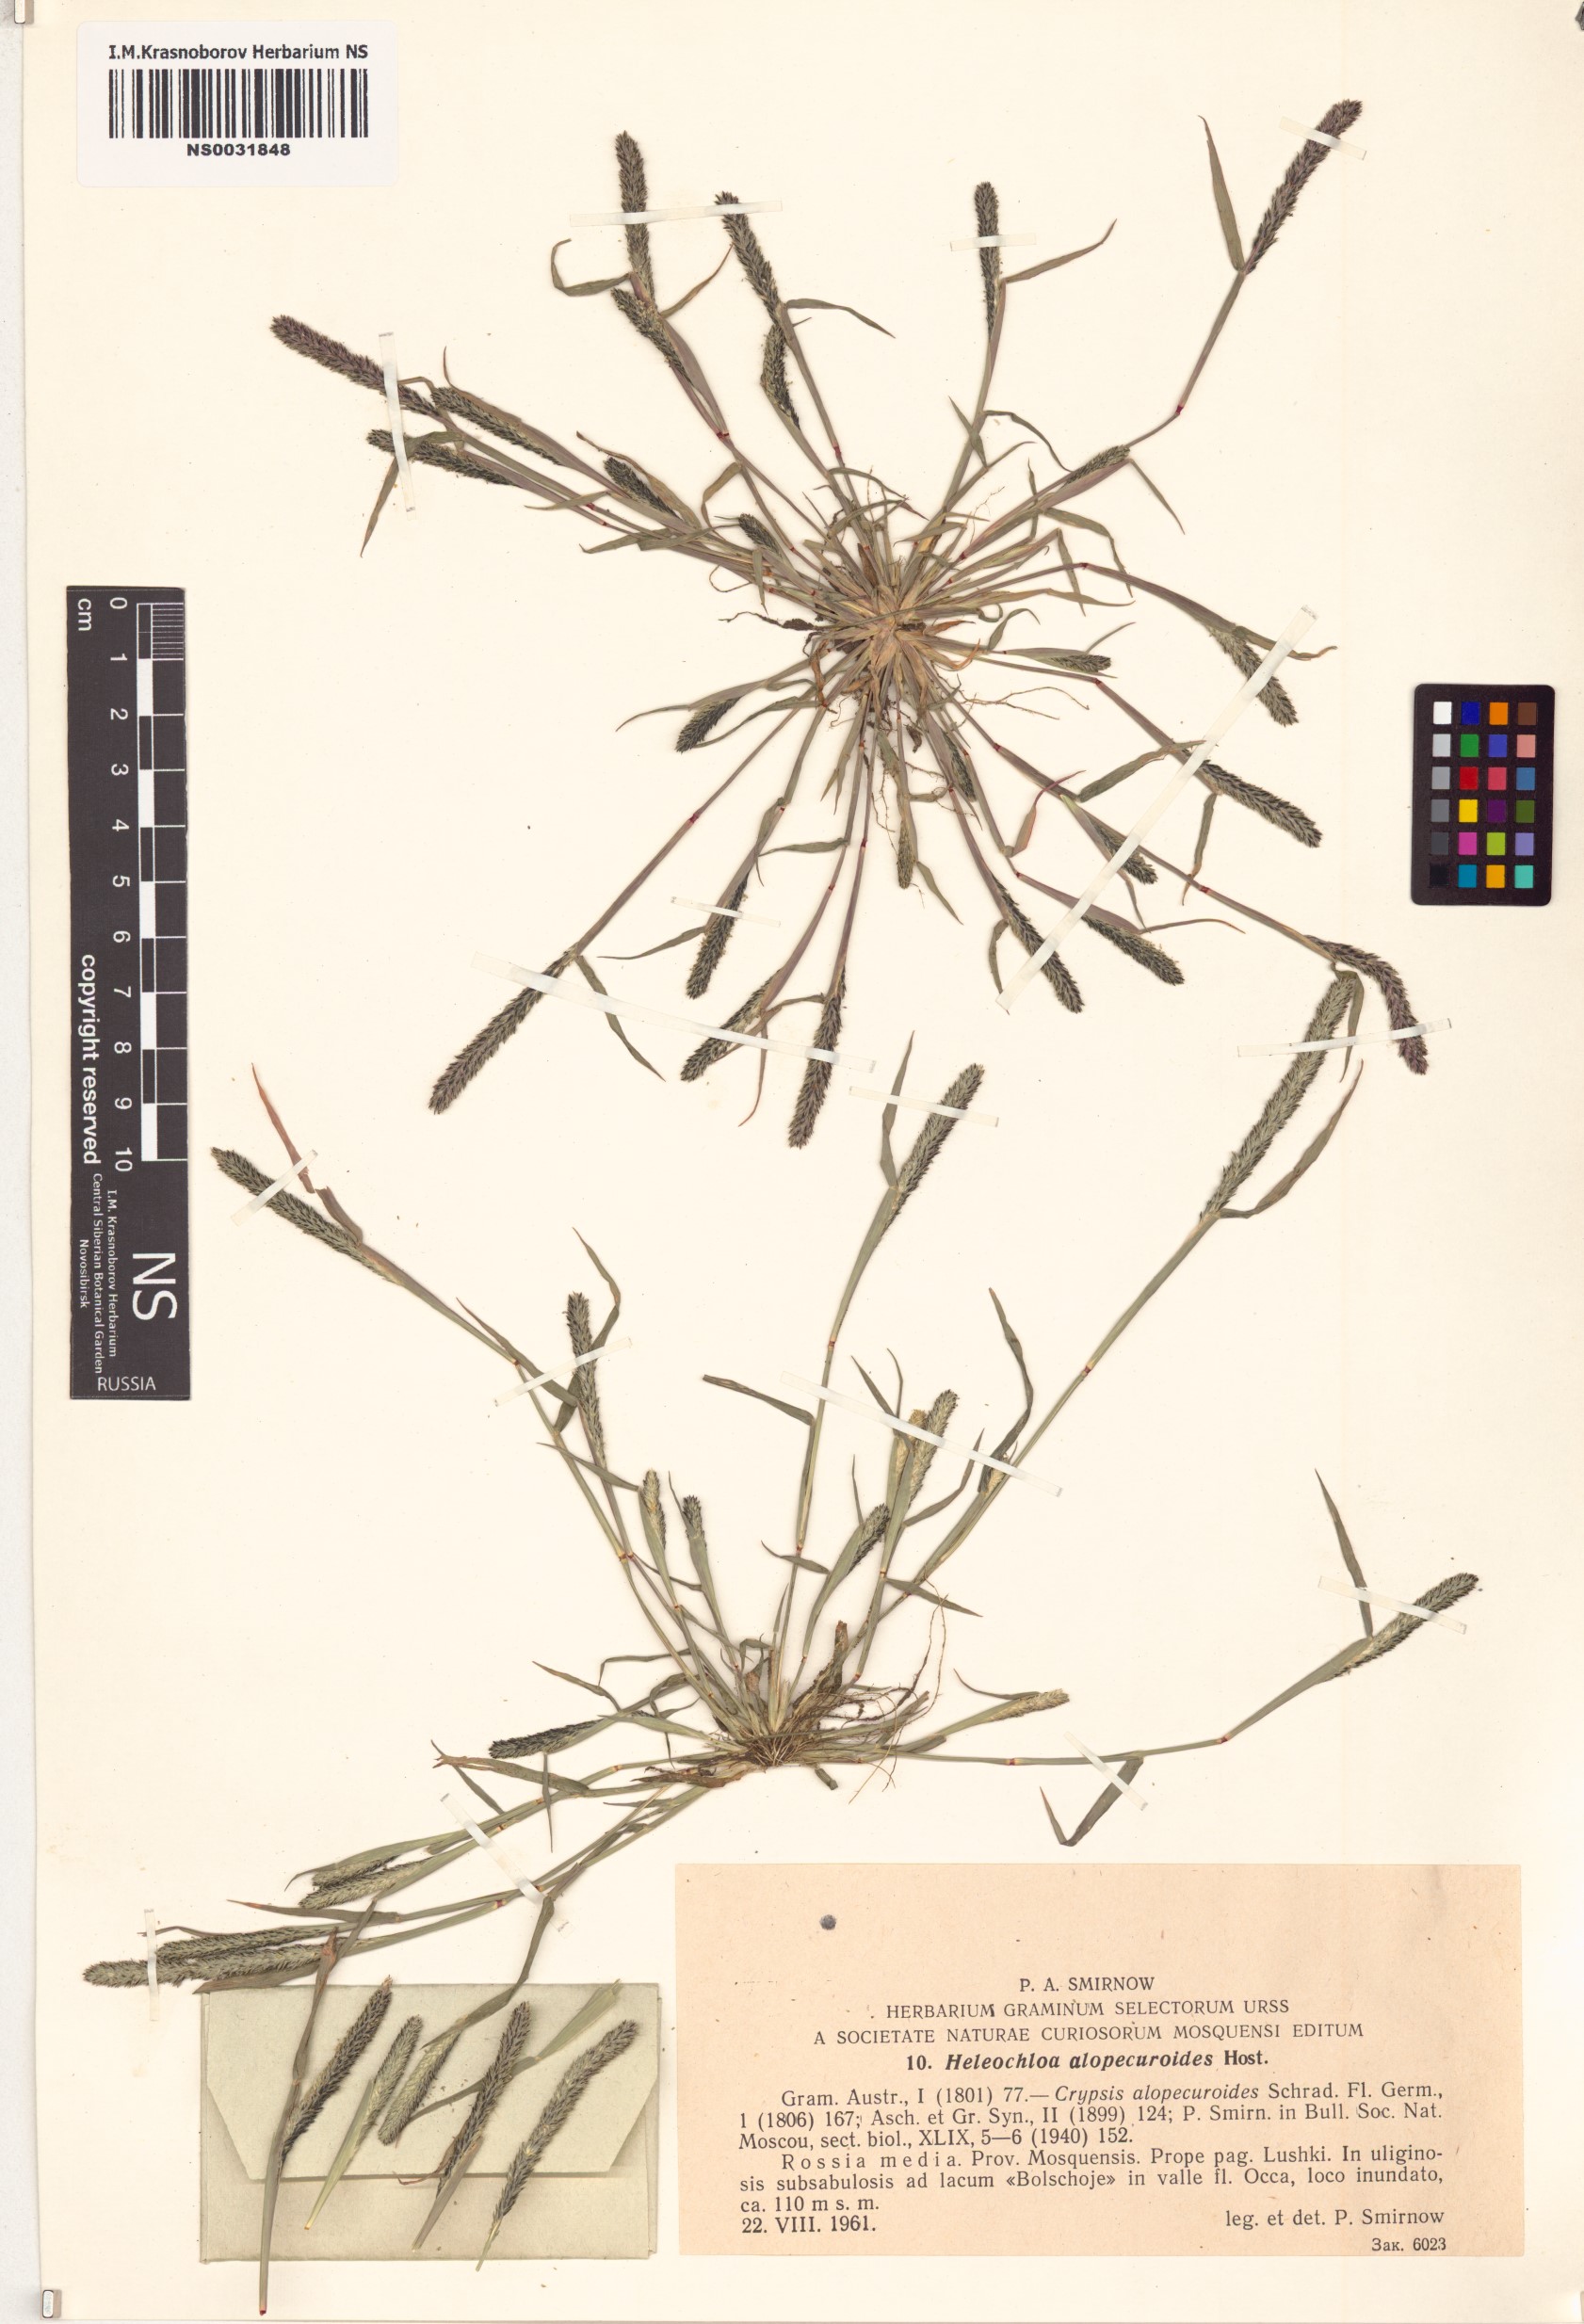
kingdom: Plantae
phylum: Tracheophyta
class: Liliopsida
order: Poales
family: Poaceae
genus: Sporobolus
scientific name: Sporobolus alopecuroides
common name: Foxtail pricklegrass
